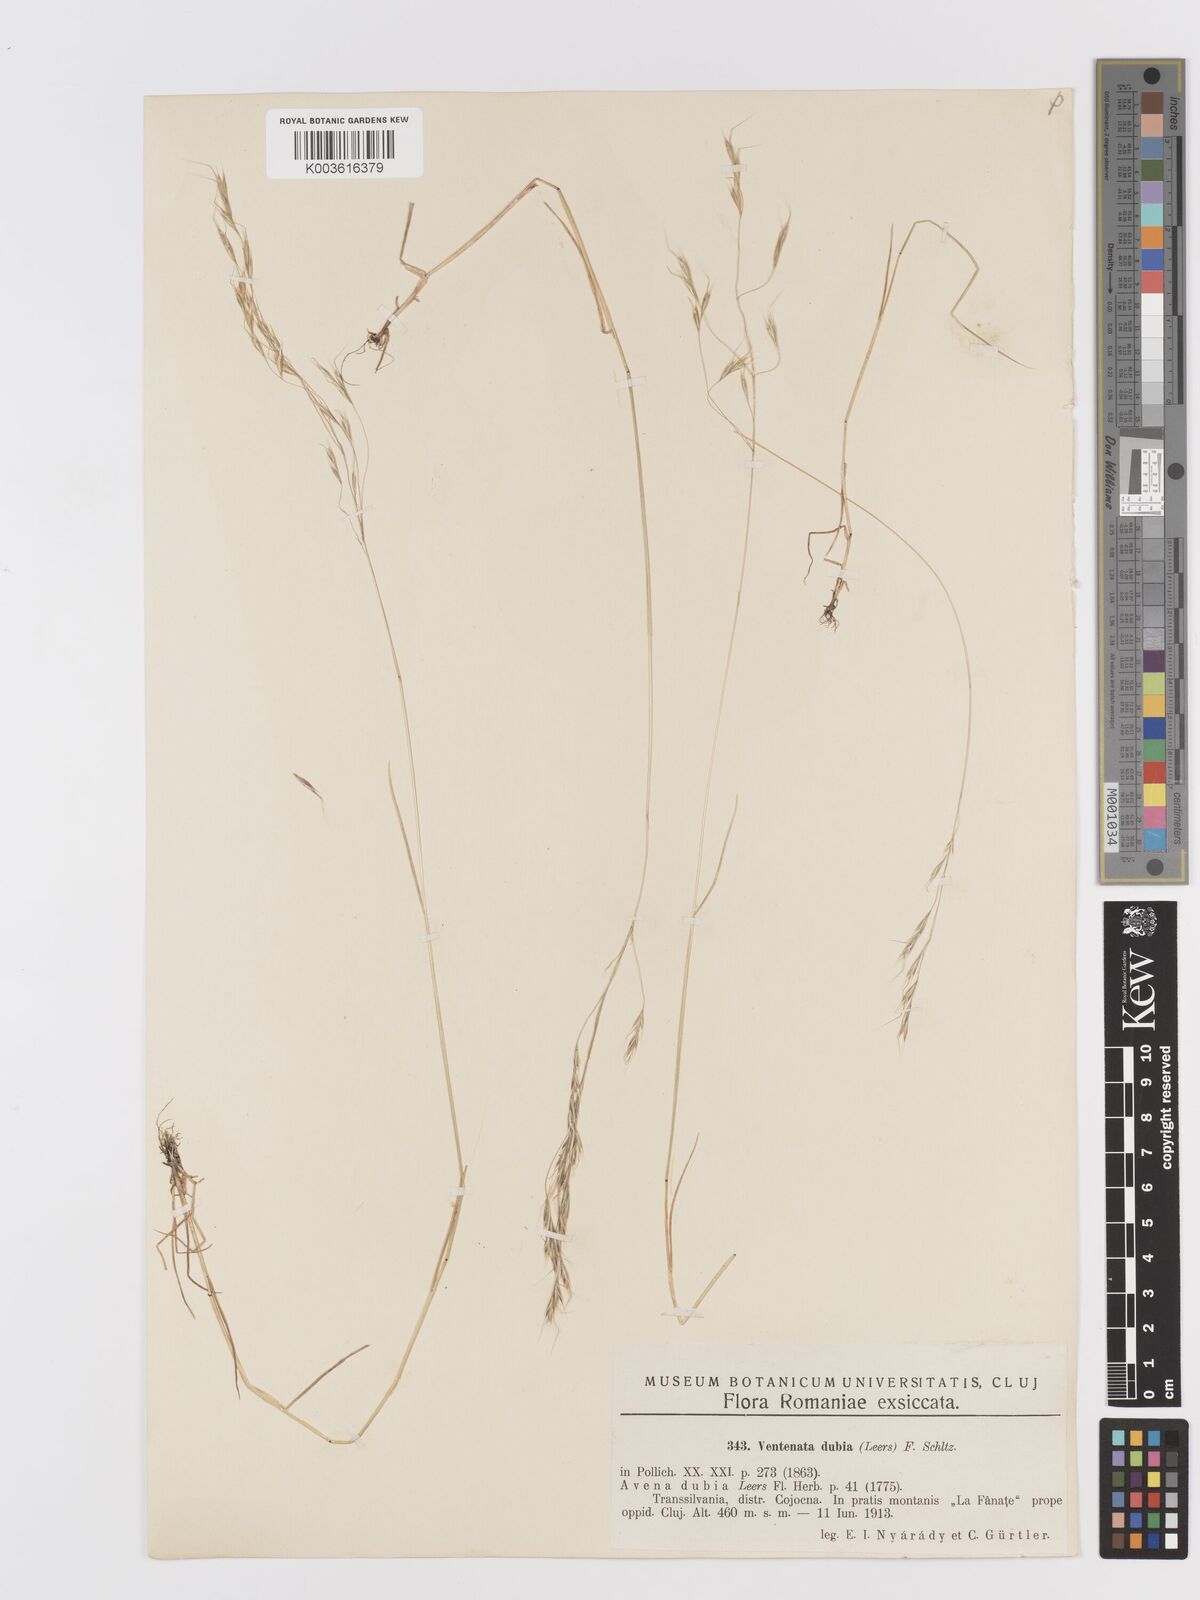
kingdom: Plantae
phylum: Tracheophyta
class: Liliopsida
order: Poales
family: Poaceae
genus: Ventenata
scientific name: Ventenata dubia
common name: North africa grass
